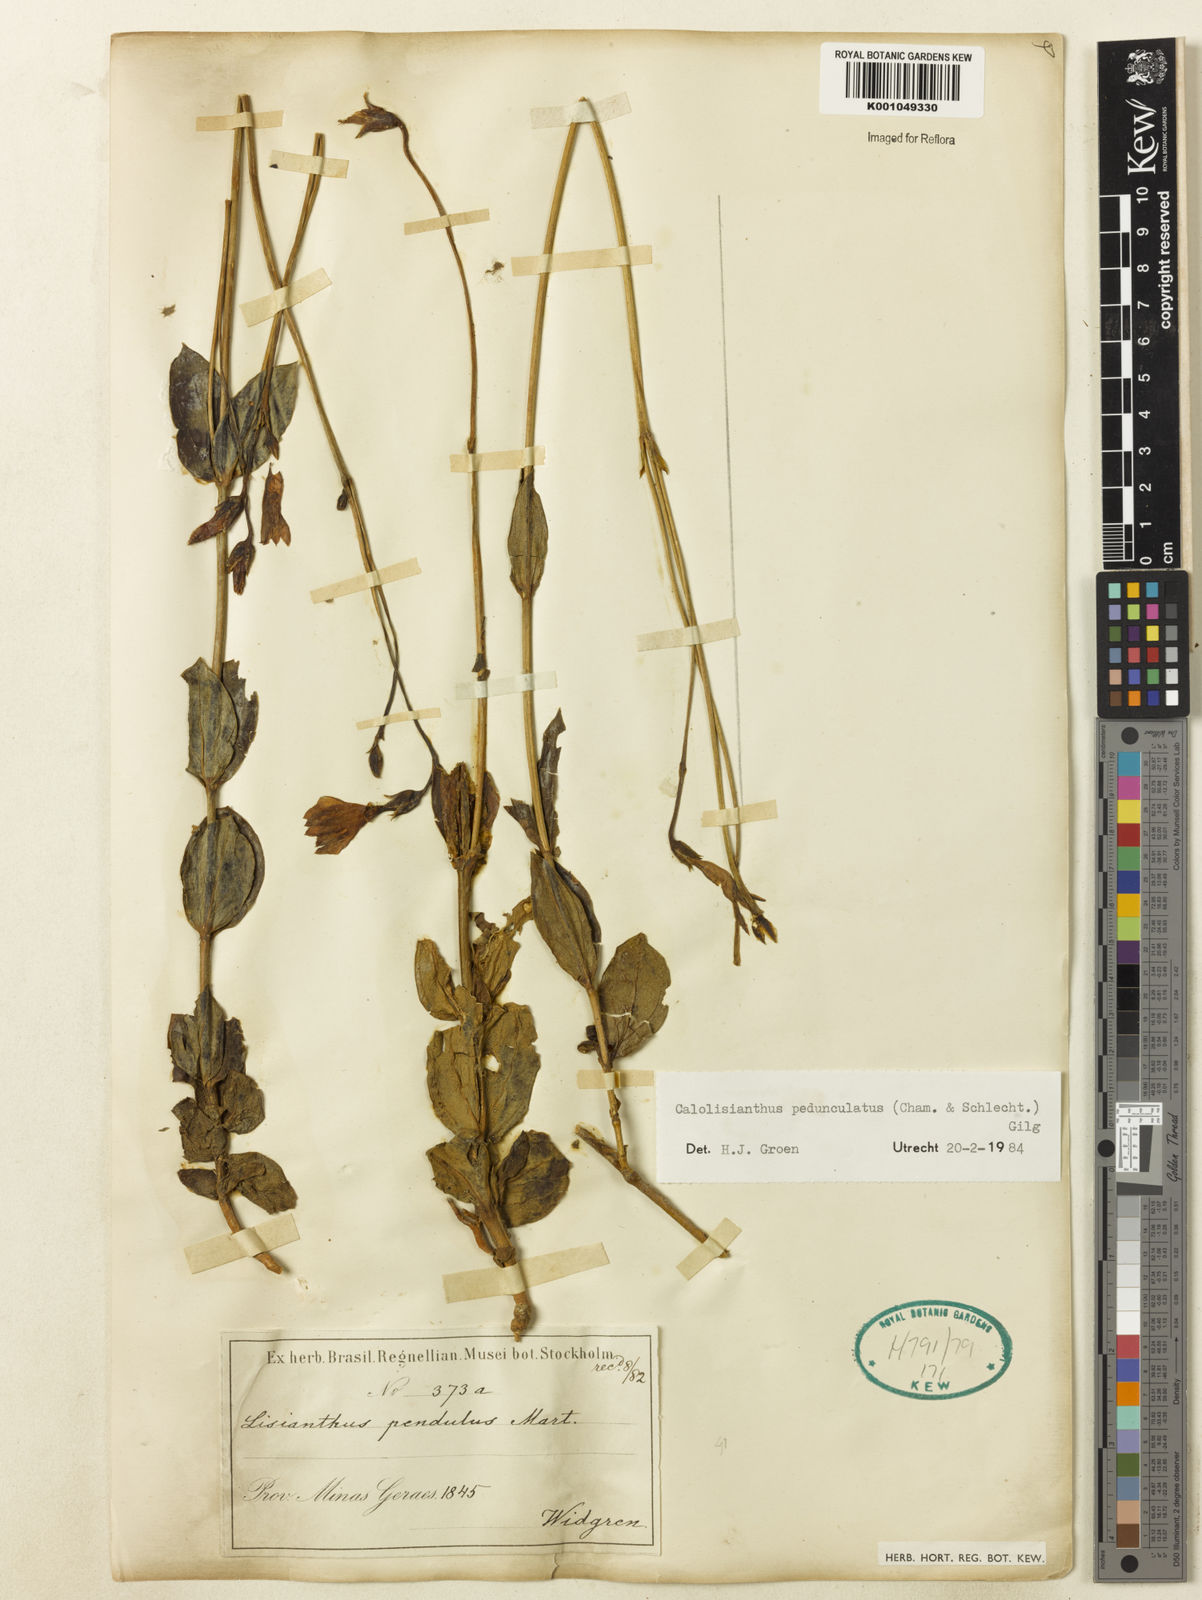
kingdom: Plantae
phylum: Tracheophyta
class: Magnoliopsida
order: Gentianales
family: Gentianaceae
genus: Calolisianthus
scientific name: Calolisianthus
